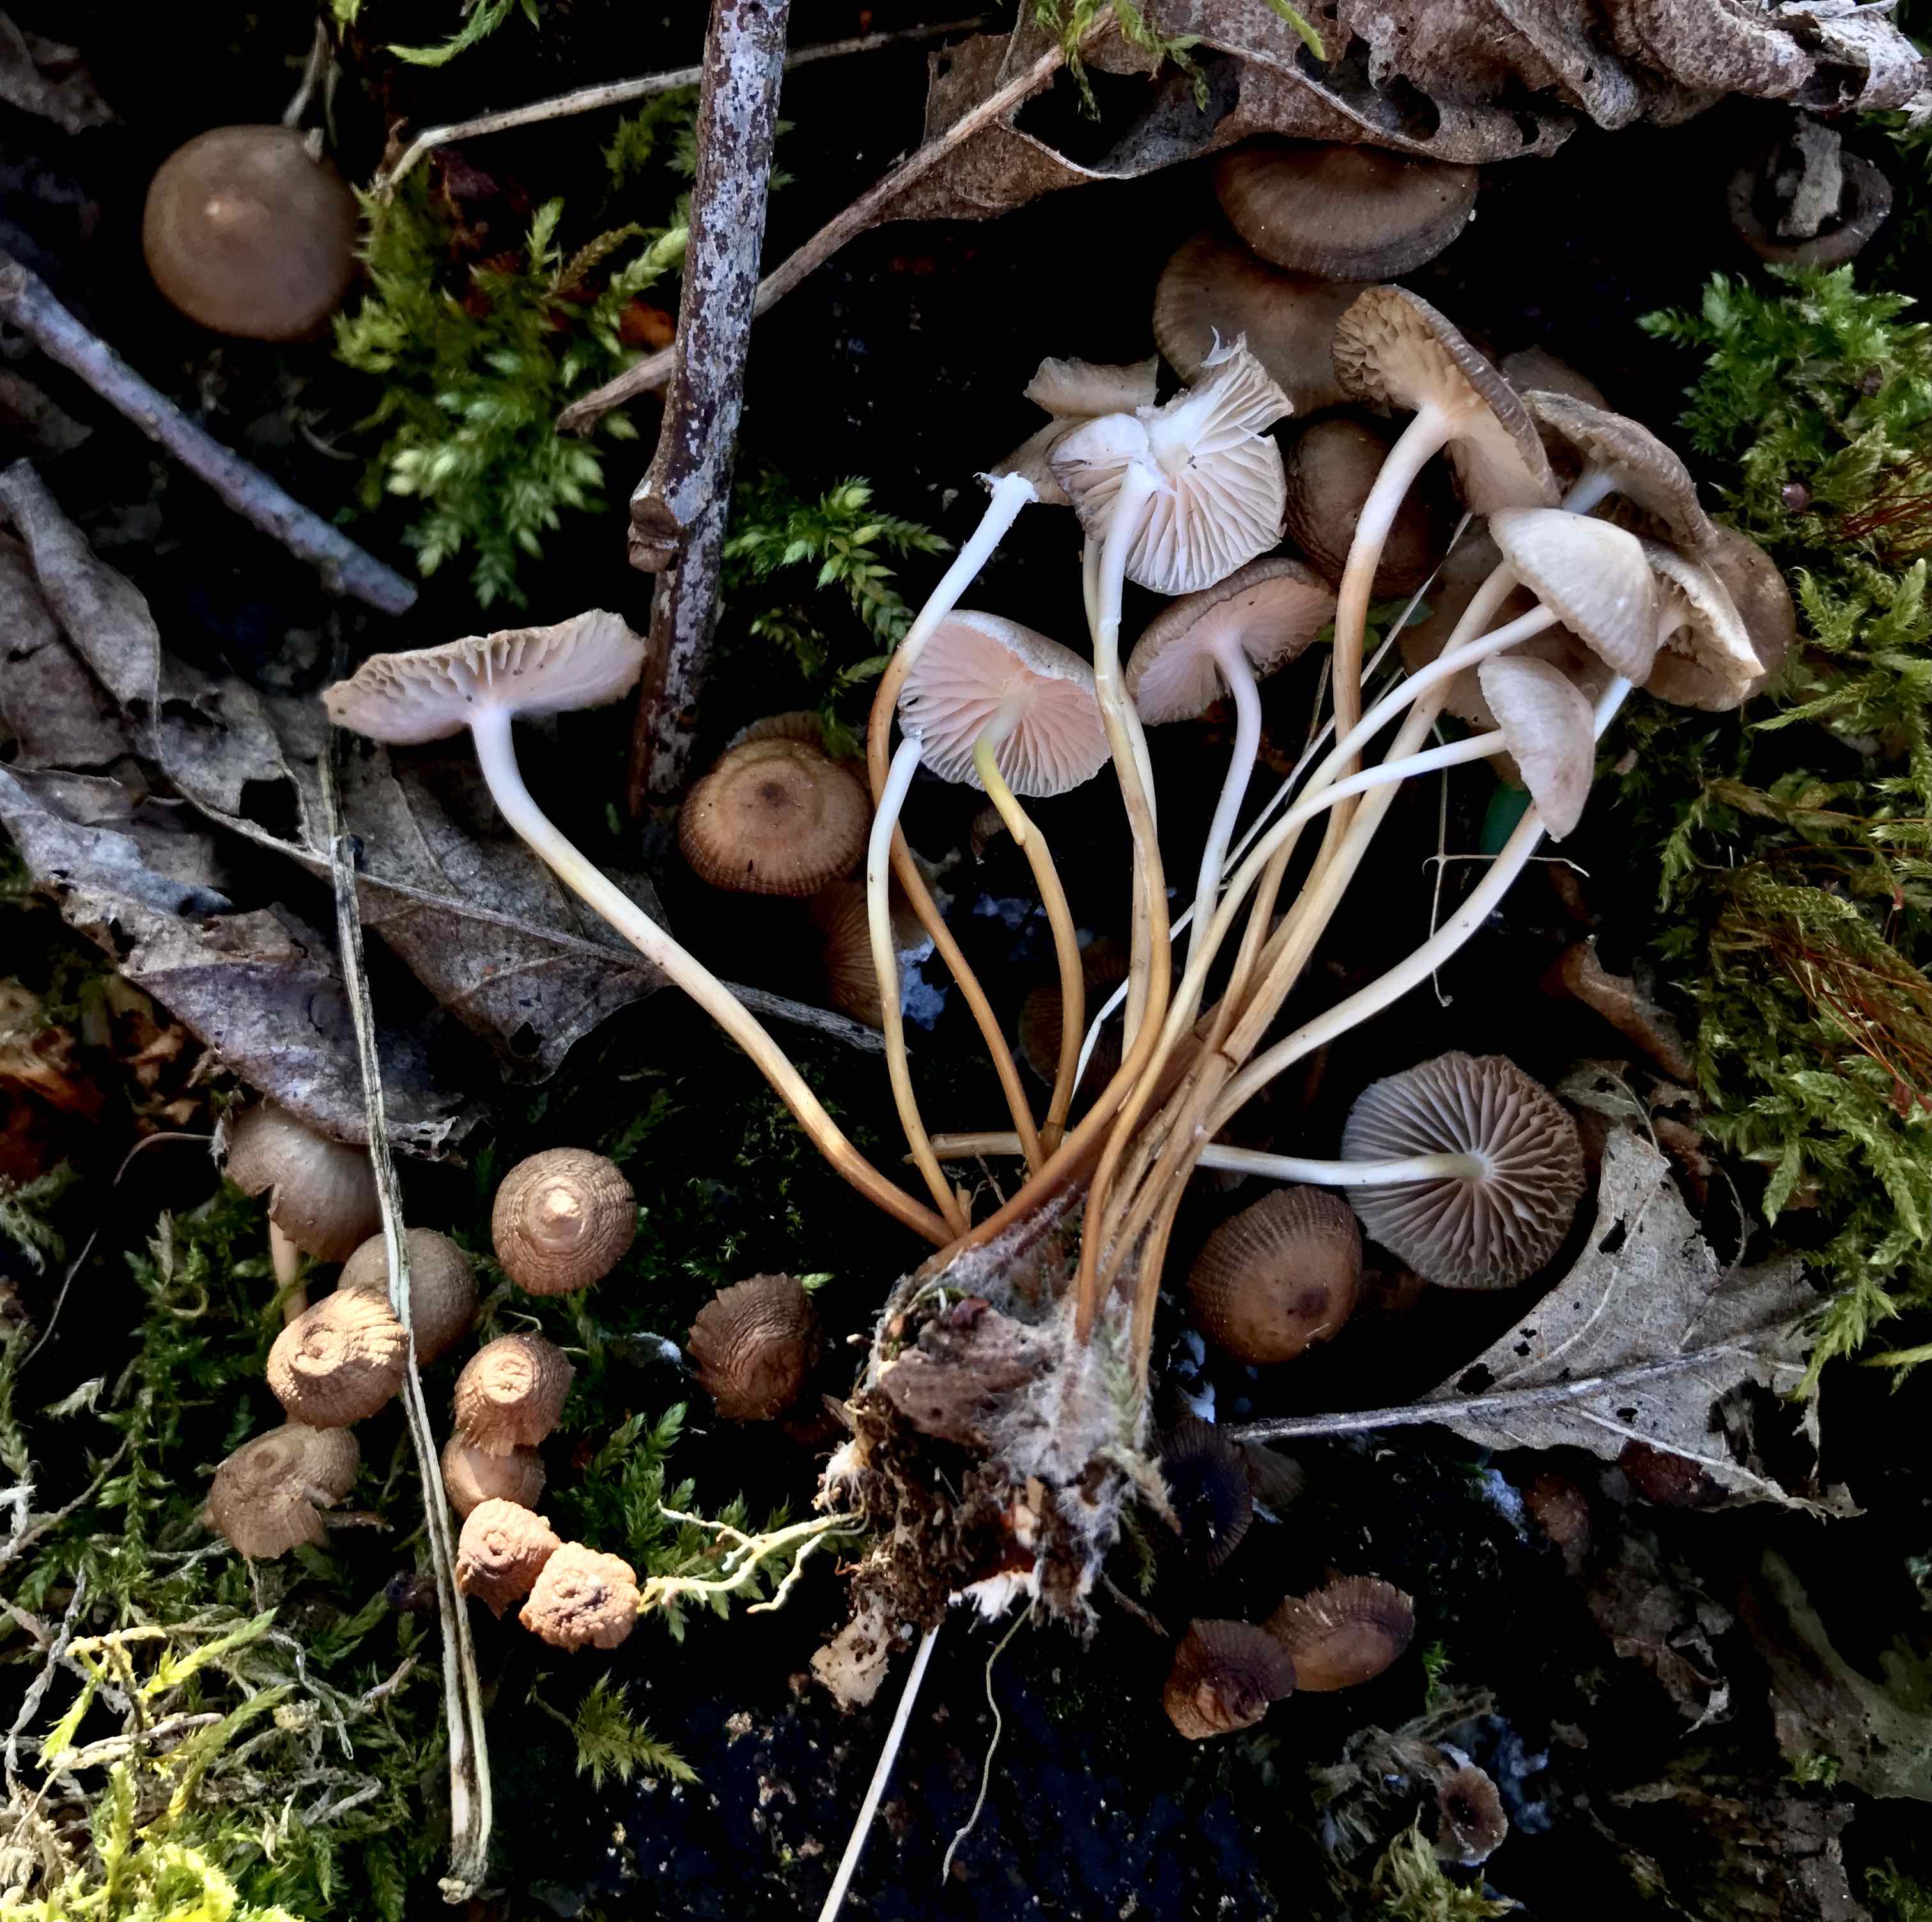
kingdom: Fungi
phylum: Basidiomycota
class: Agaricomycetes
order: Agaricales
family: Mycenaceae
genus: Mycena
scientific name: Mycena
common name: huesvamp
